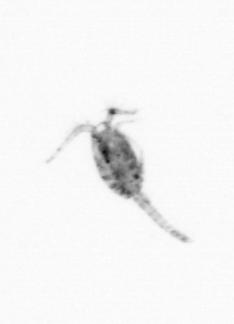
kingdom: Animalia
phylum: Arthropoda
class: Copepoda
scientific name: Copepoda
